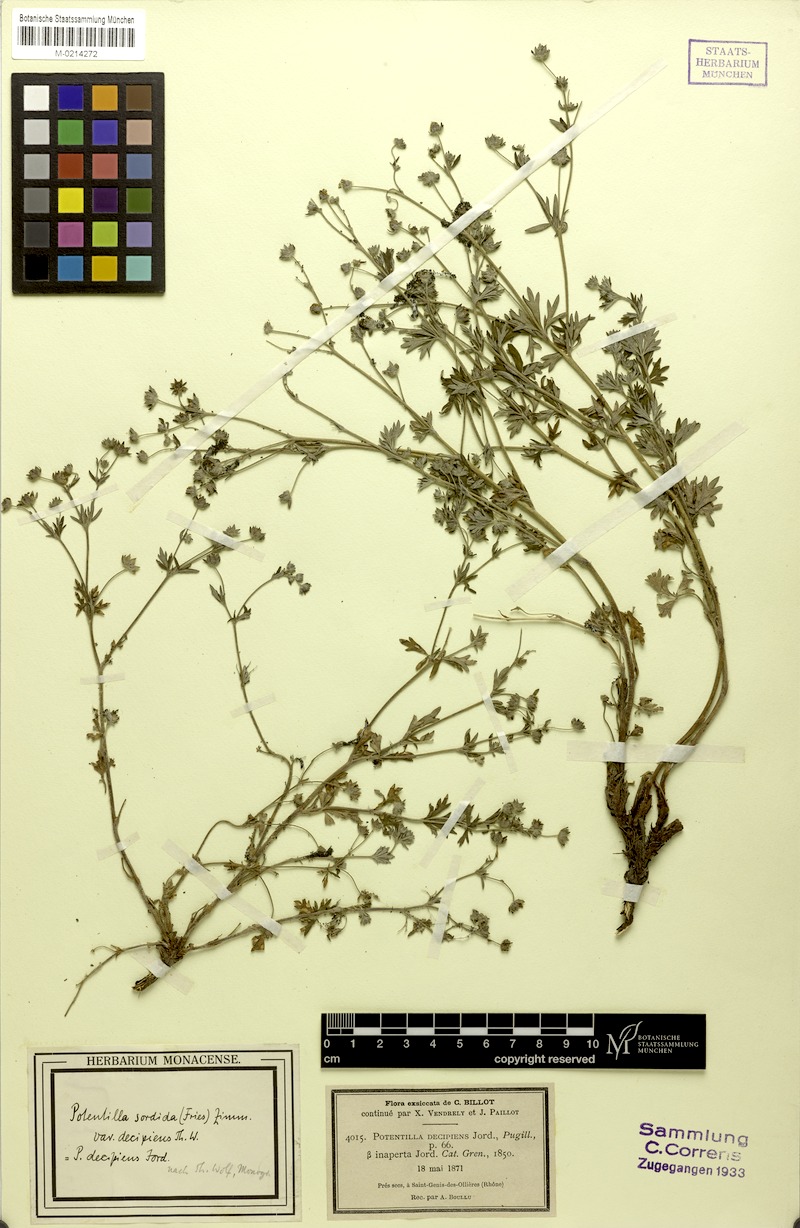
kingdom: Plantae
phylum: Tracheophyta
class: Magnoliopsida
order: Rosales
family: Rosaceae
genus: Potentilla
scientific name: Potentilla collina
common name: Palmleaf cinquefoil
